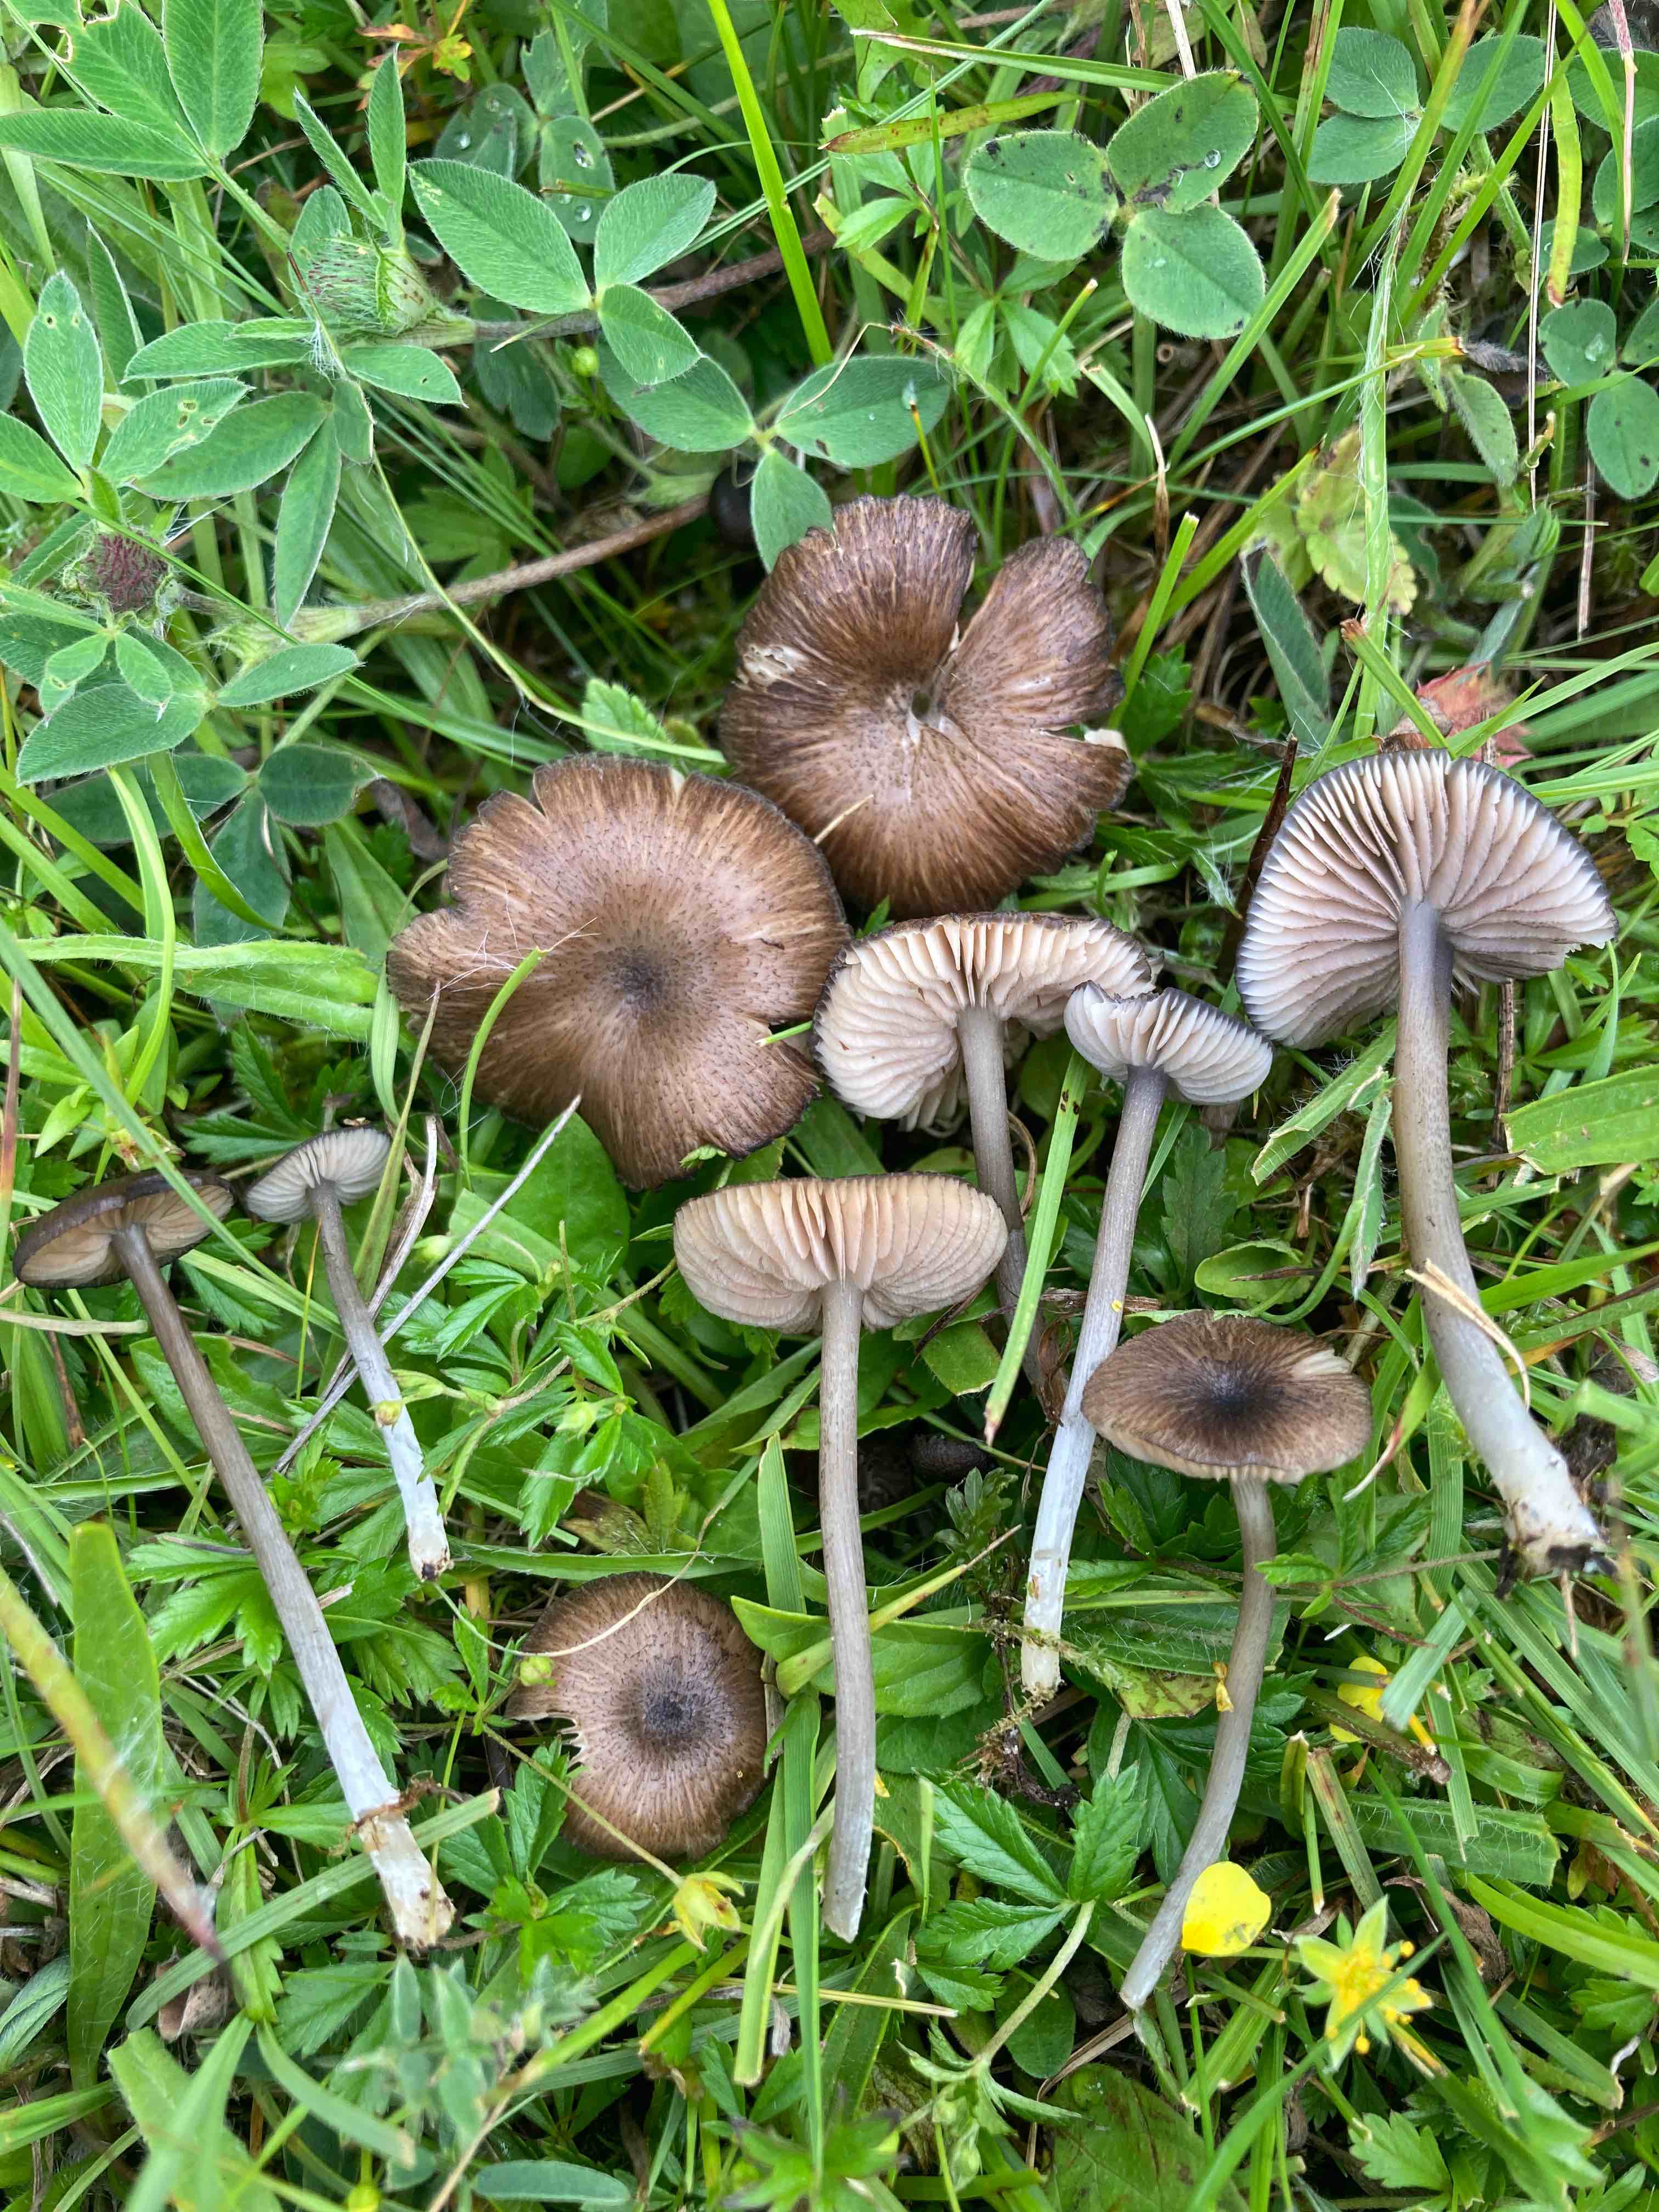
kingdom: Fungi
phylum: Basidiomycota
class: Agaricomycetes
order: Agaricales
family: Entolomataceae
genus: Entoloma
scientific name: Entoloma
